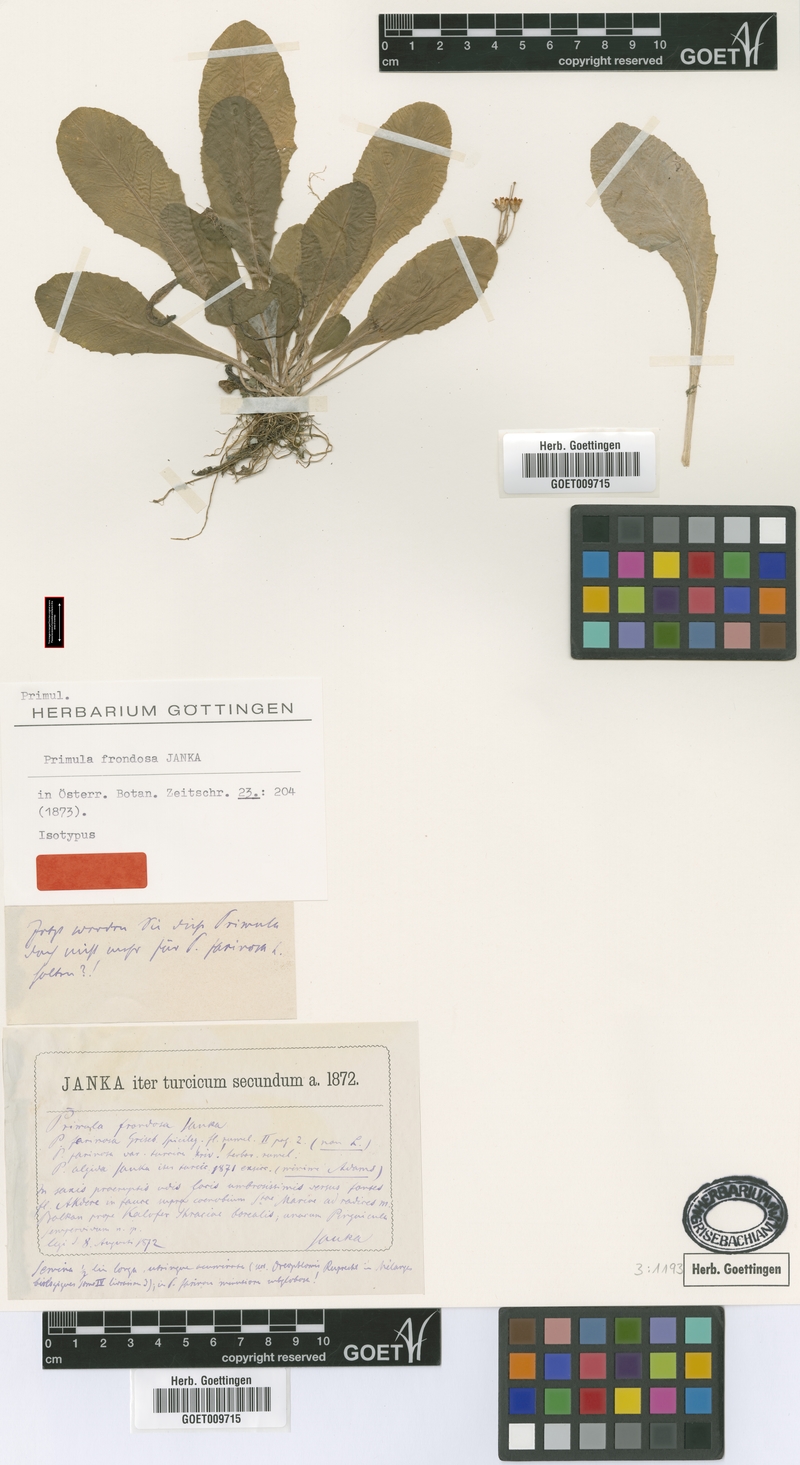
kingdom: Plantae
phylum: Tracheophyta
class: Magnoliopsida
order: Ericales
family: Primulaceae
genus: Primula
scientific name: Primula frondosa
